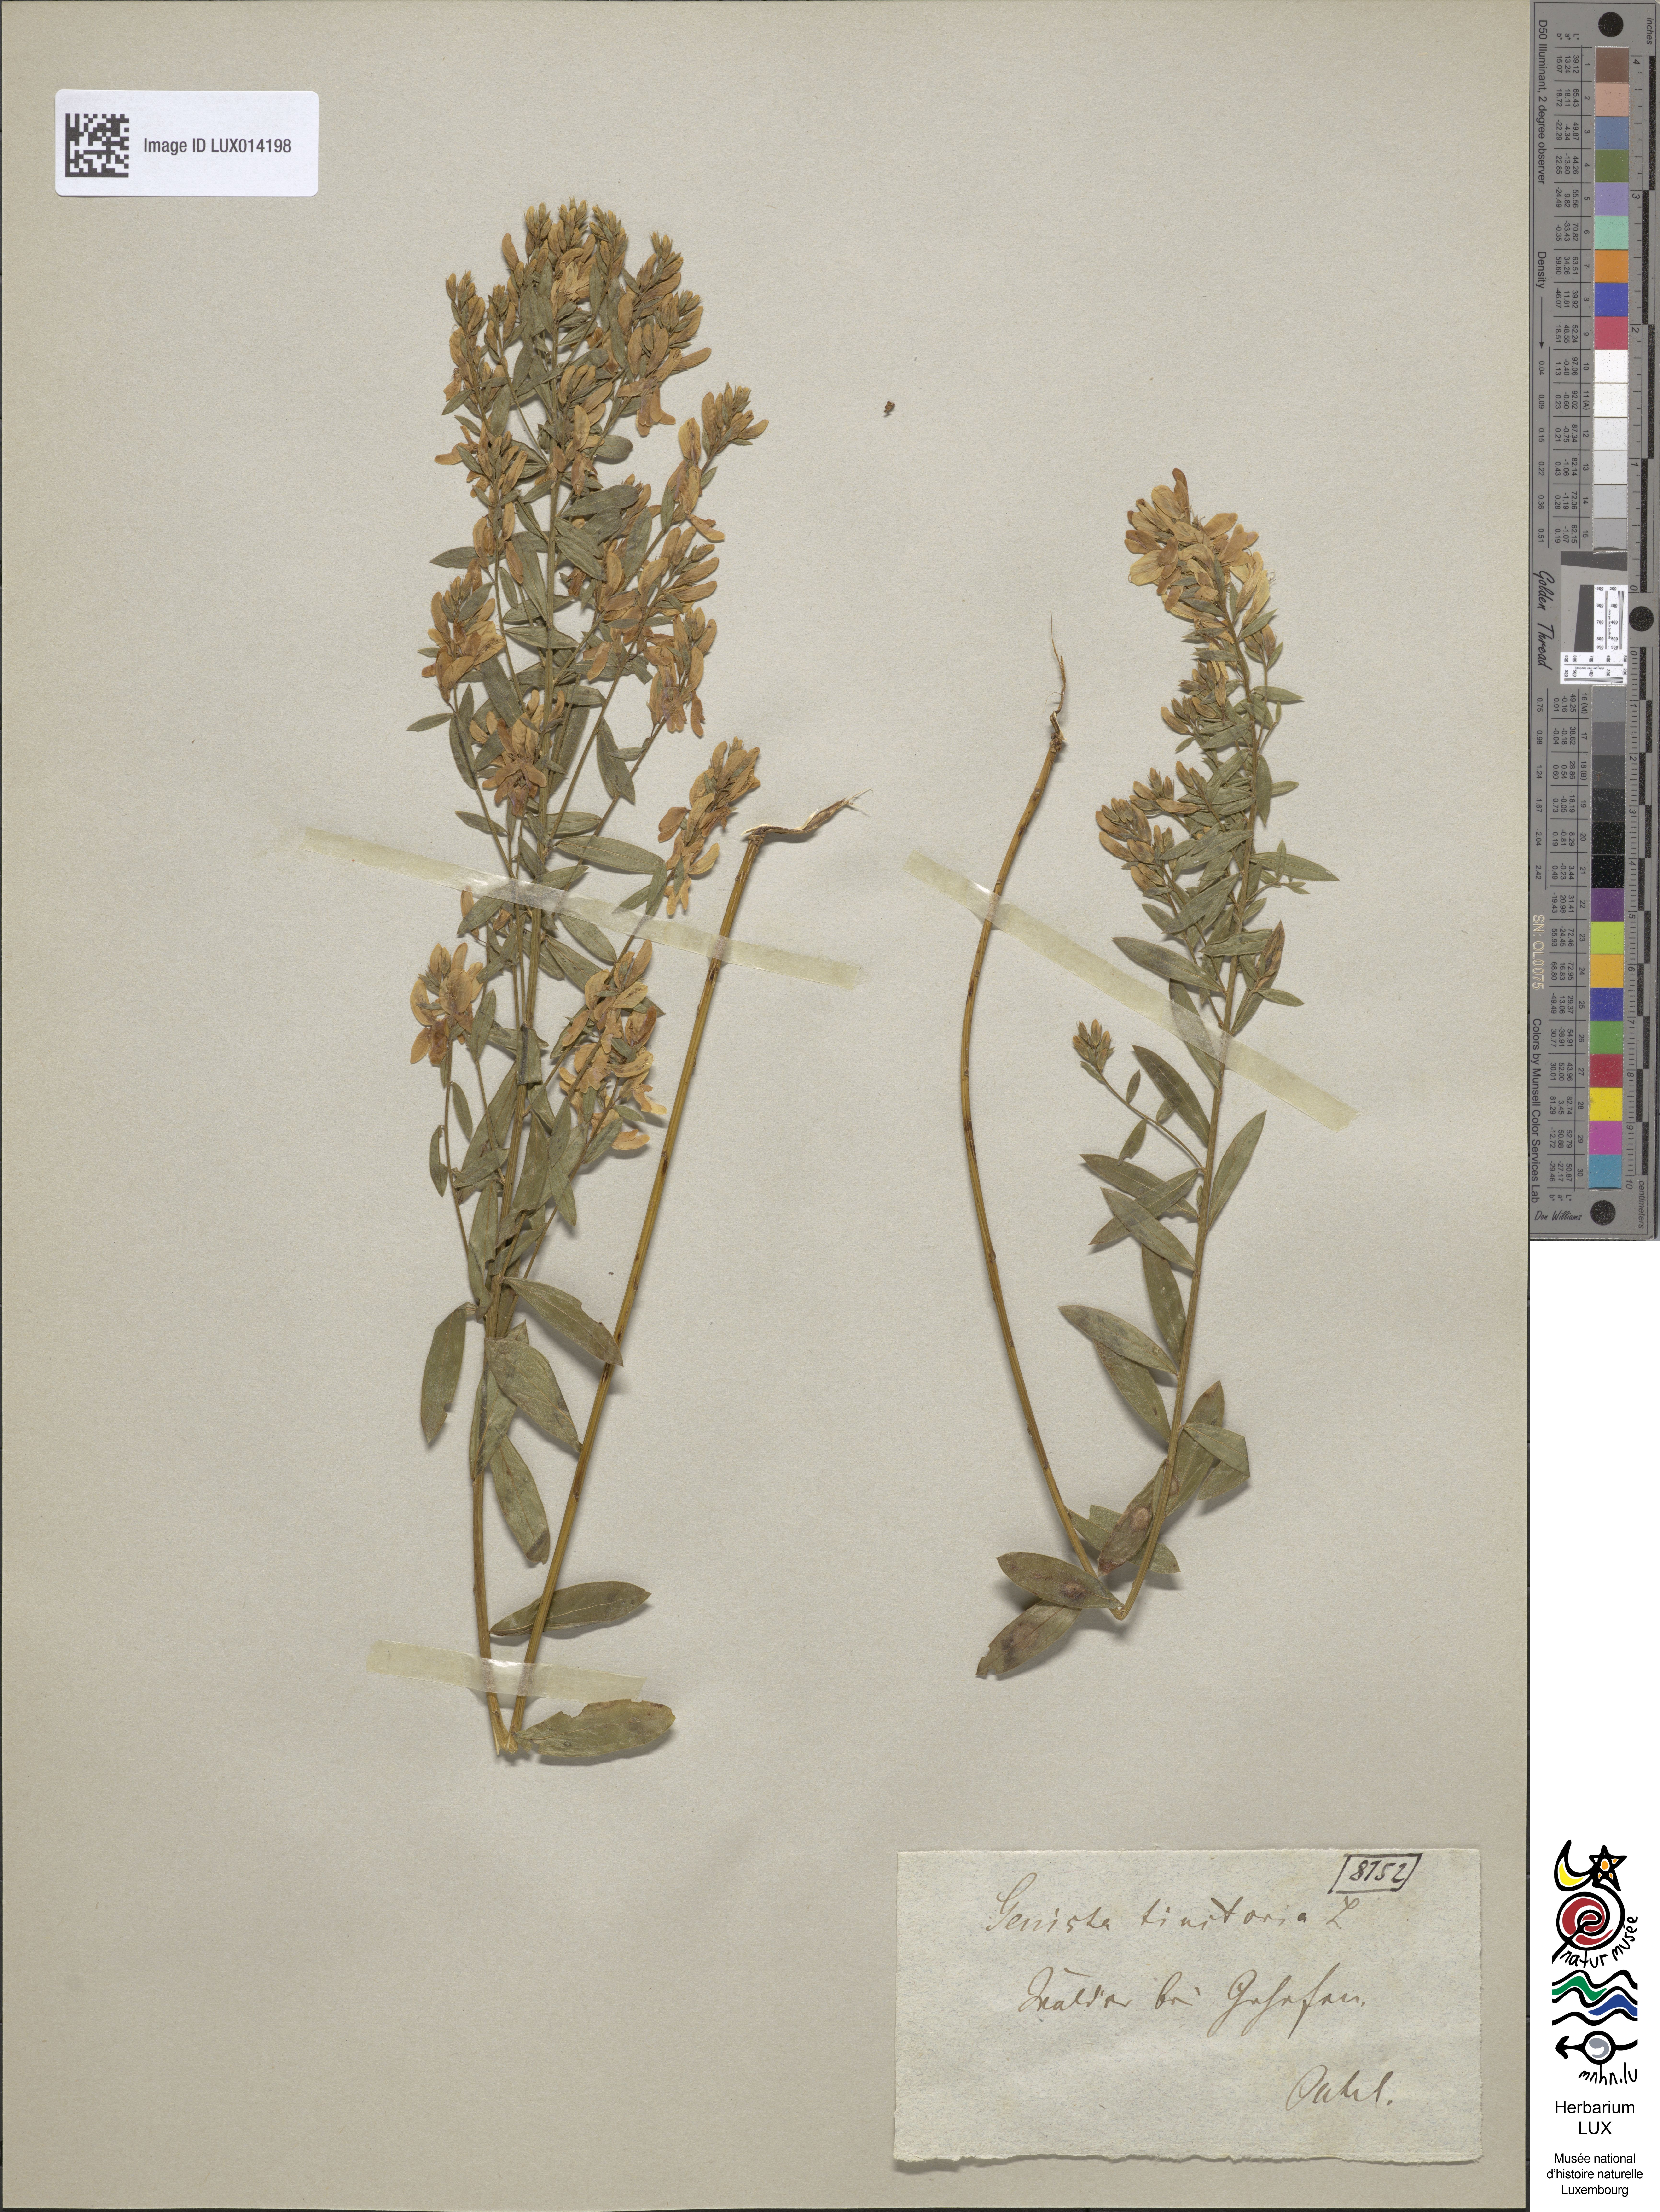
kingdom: Plantae
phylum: Tracheophyta
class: Magnoliopsida
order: Fabales
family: Fabaceae
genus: Genista
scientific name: Genista tinctoria
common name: Dyer's greenweed
